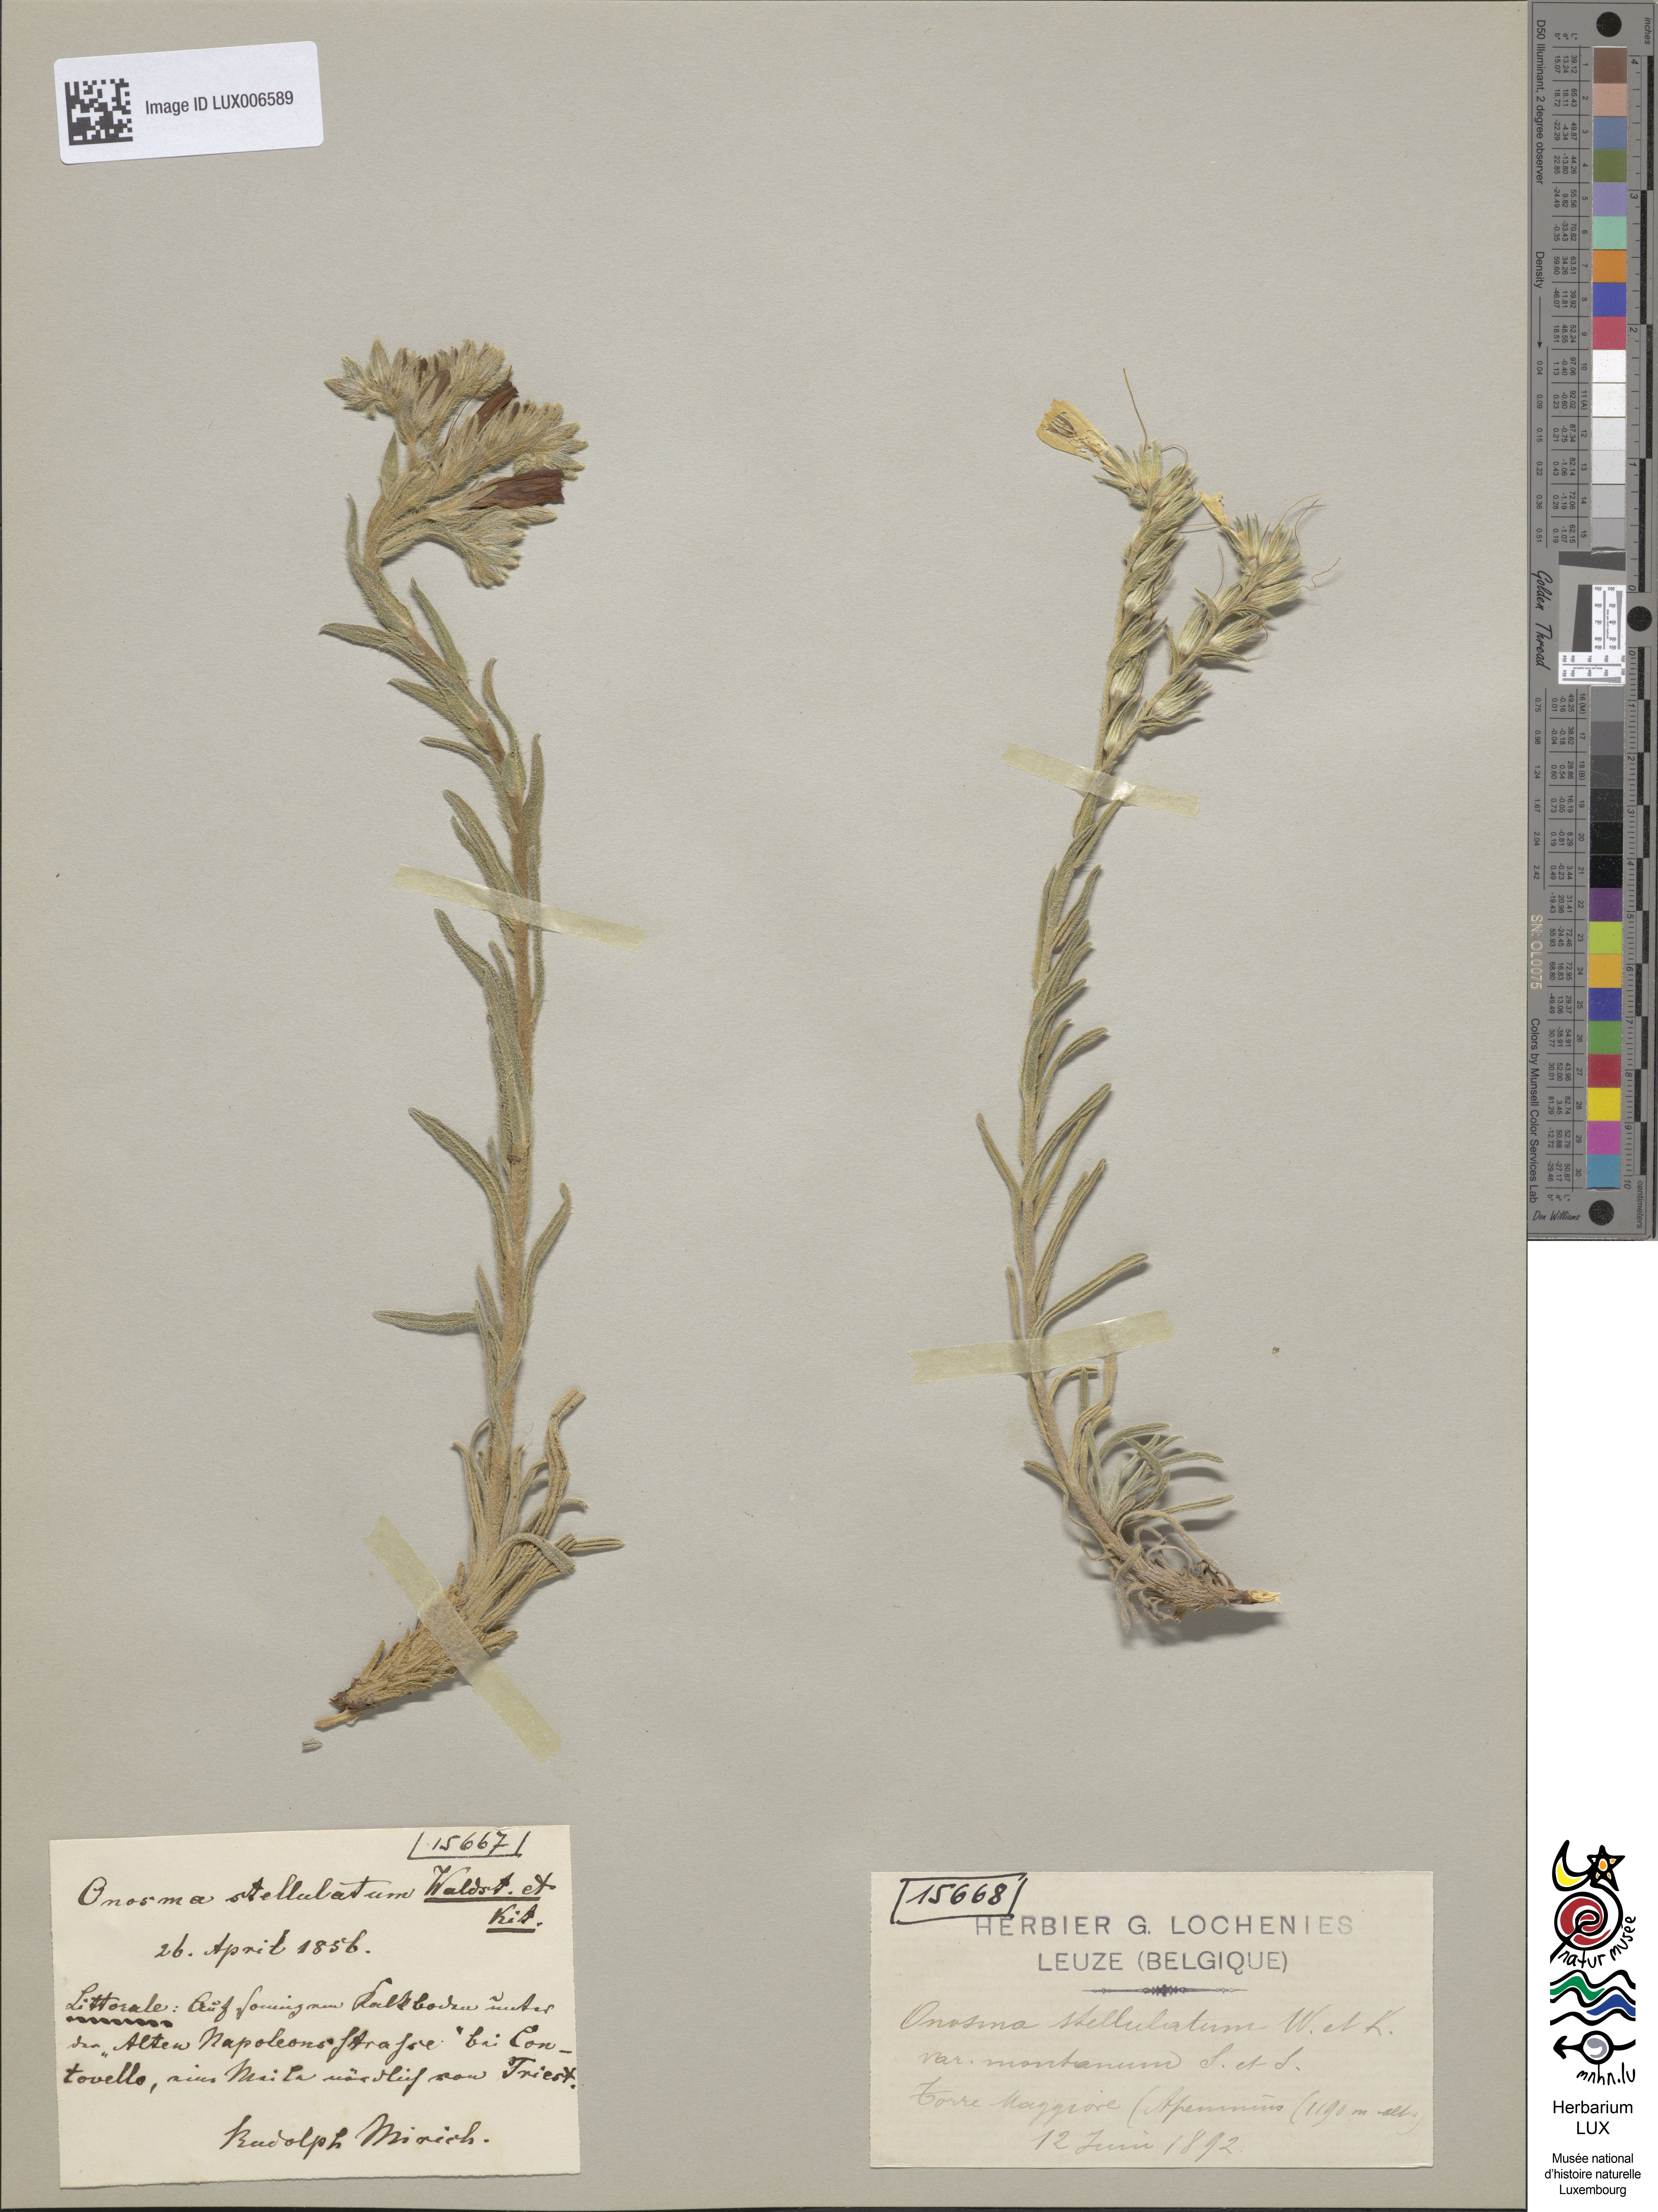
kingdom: Plantae
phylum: Tracheophyta
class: Magnoliopsida
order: Boraginales
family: Boraginaceae
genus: Onosma
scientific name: Onosma cinerea
